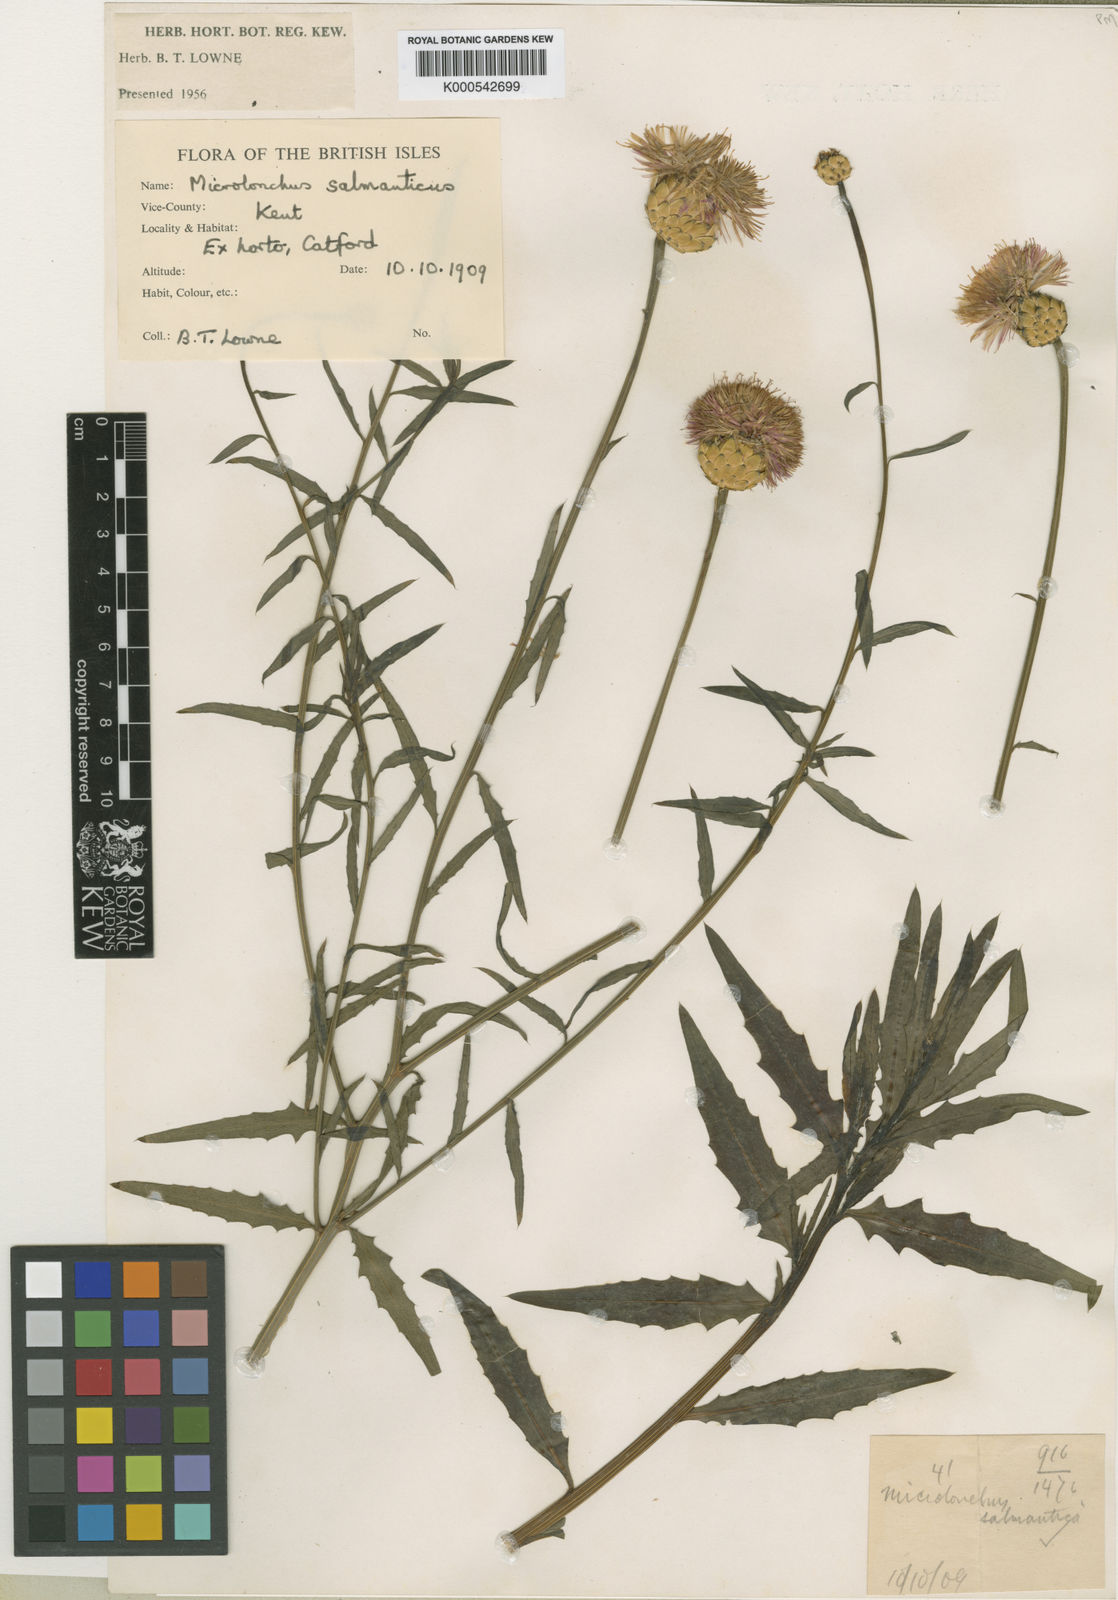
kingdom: Plantae
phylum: Tracheophyta
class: Magnoliopsida
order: Asterales
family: Asteraceae
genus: Mantisalca
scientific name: Mantisalca salmantica
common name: Dagger flower
